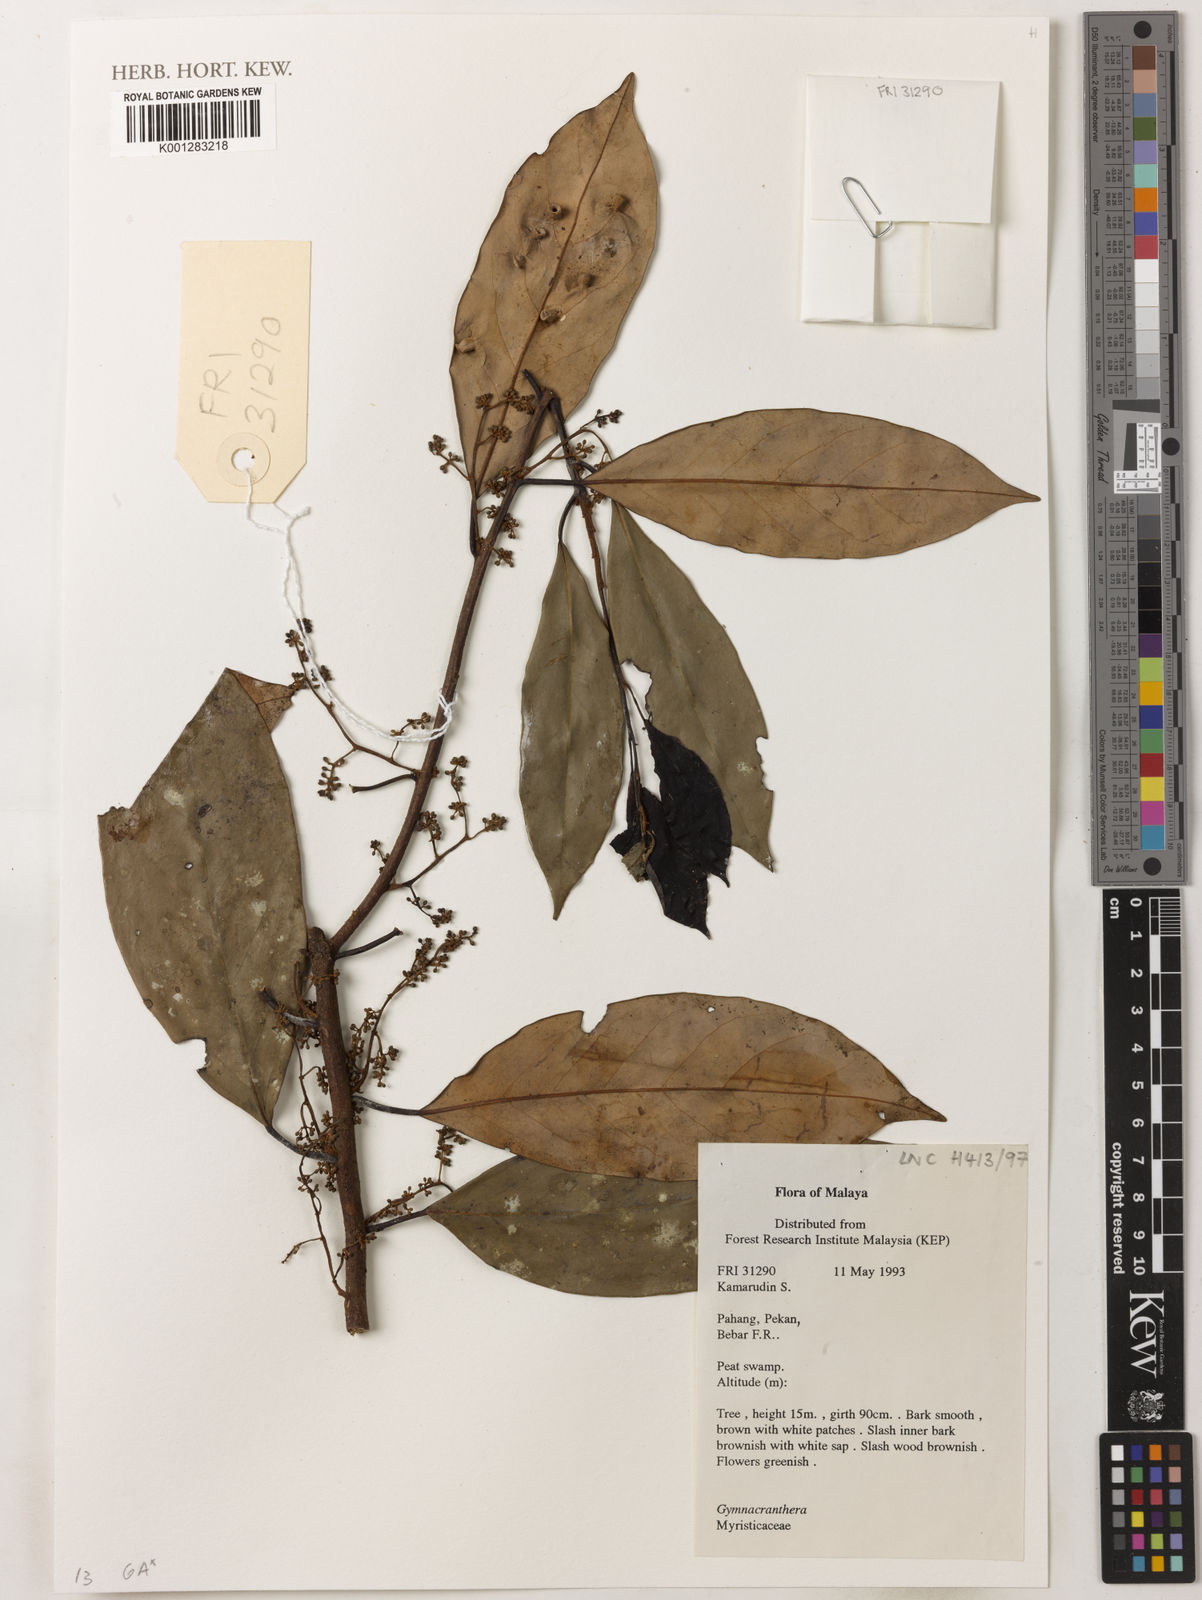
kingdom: Plantae
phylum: Tracheophyta
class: Magnoliopsida
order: Magnoliales
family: Myristicaceae
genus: Gymnacranthera
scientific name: Gymnacranthera
